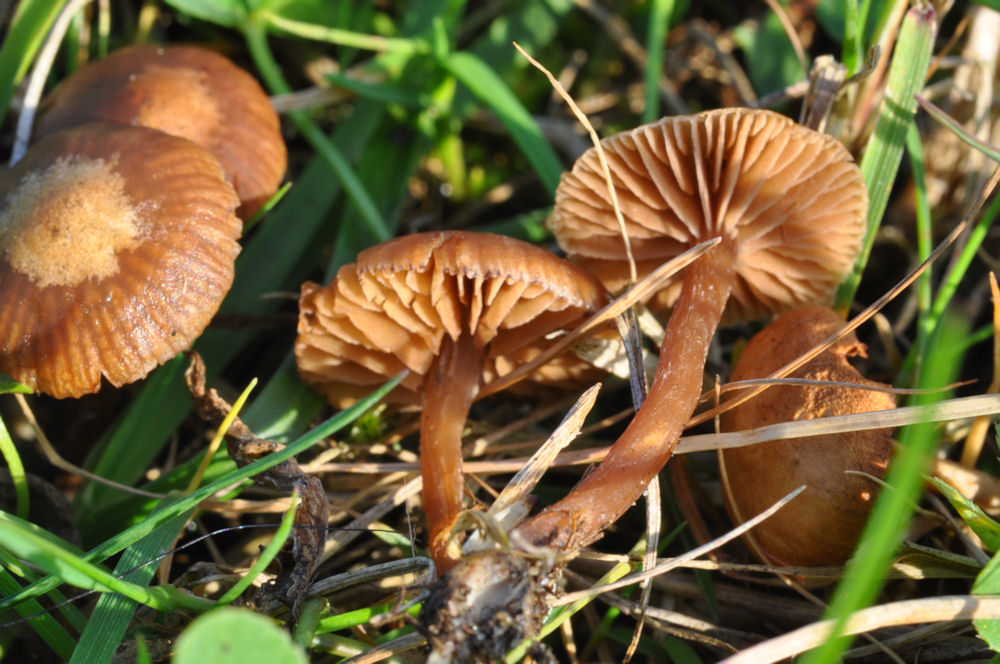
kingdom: Fungi
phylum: Basidiomycota
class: Agaricomycetes
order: Agaricales
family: Strophariaceae
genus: Deconica
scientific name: Deconica montana
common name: rødbrun stråhat
